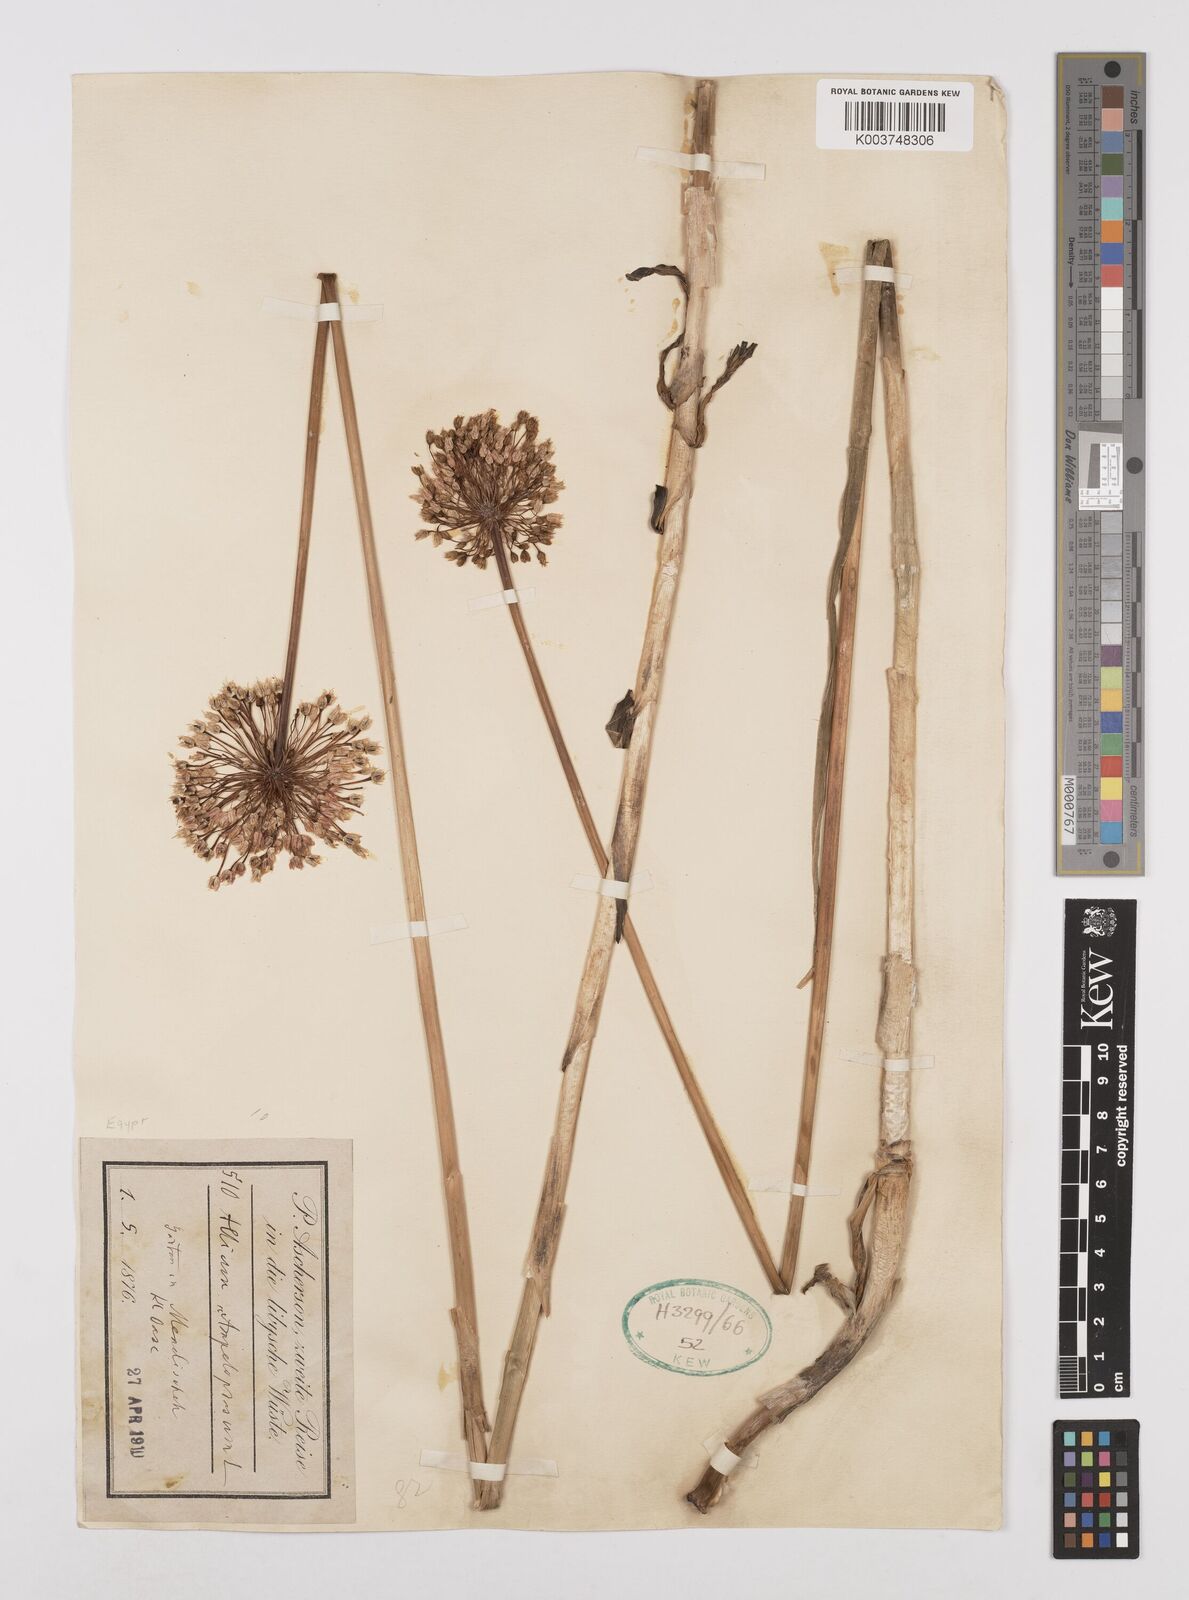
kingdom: Plantae
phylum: Tracheophyta
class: Liliopsida
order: Asparagales
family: Amaryllidaceae
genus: Allium
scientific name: Allium ampeloprasum
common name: Wild leek
